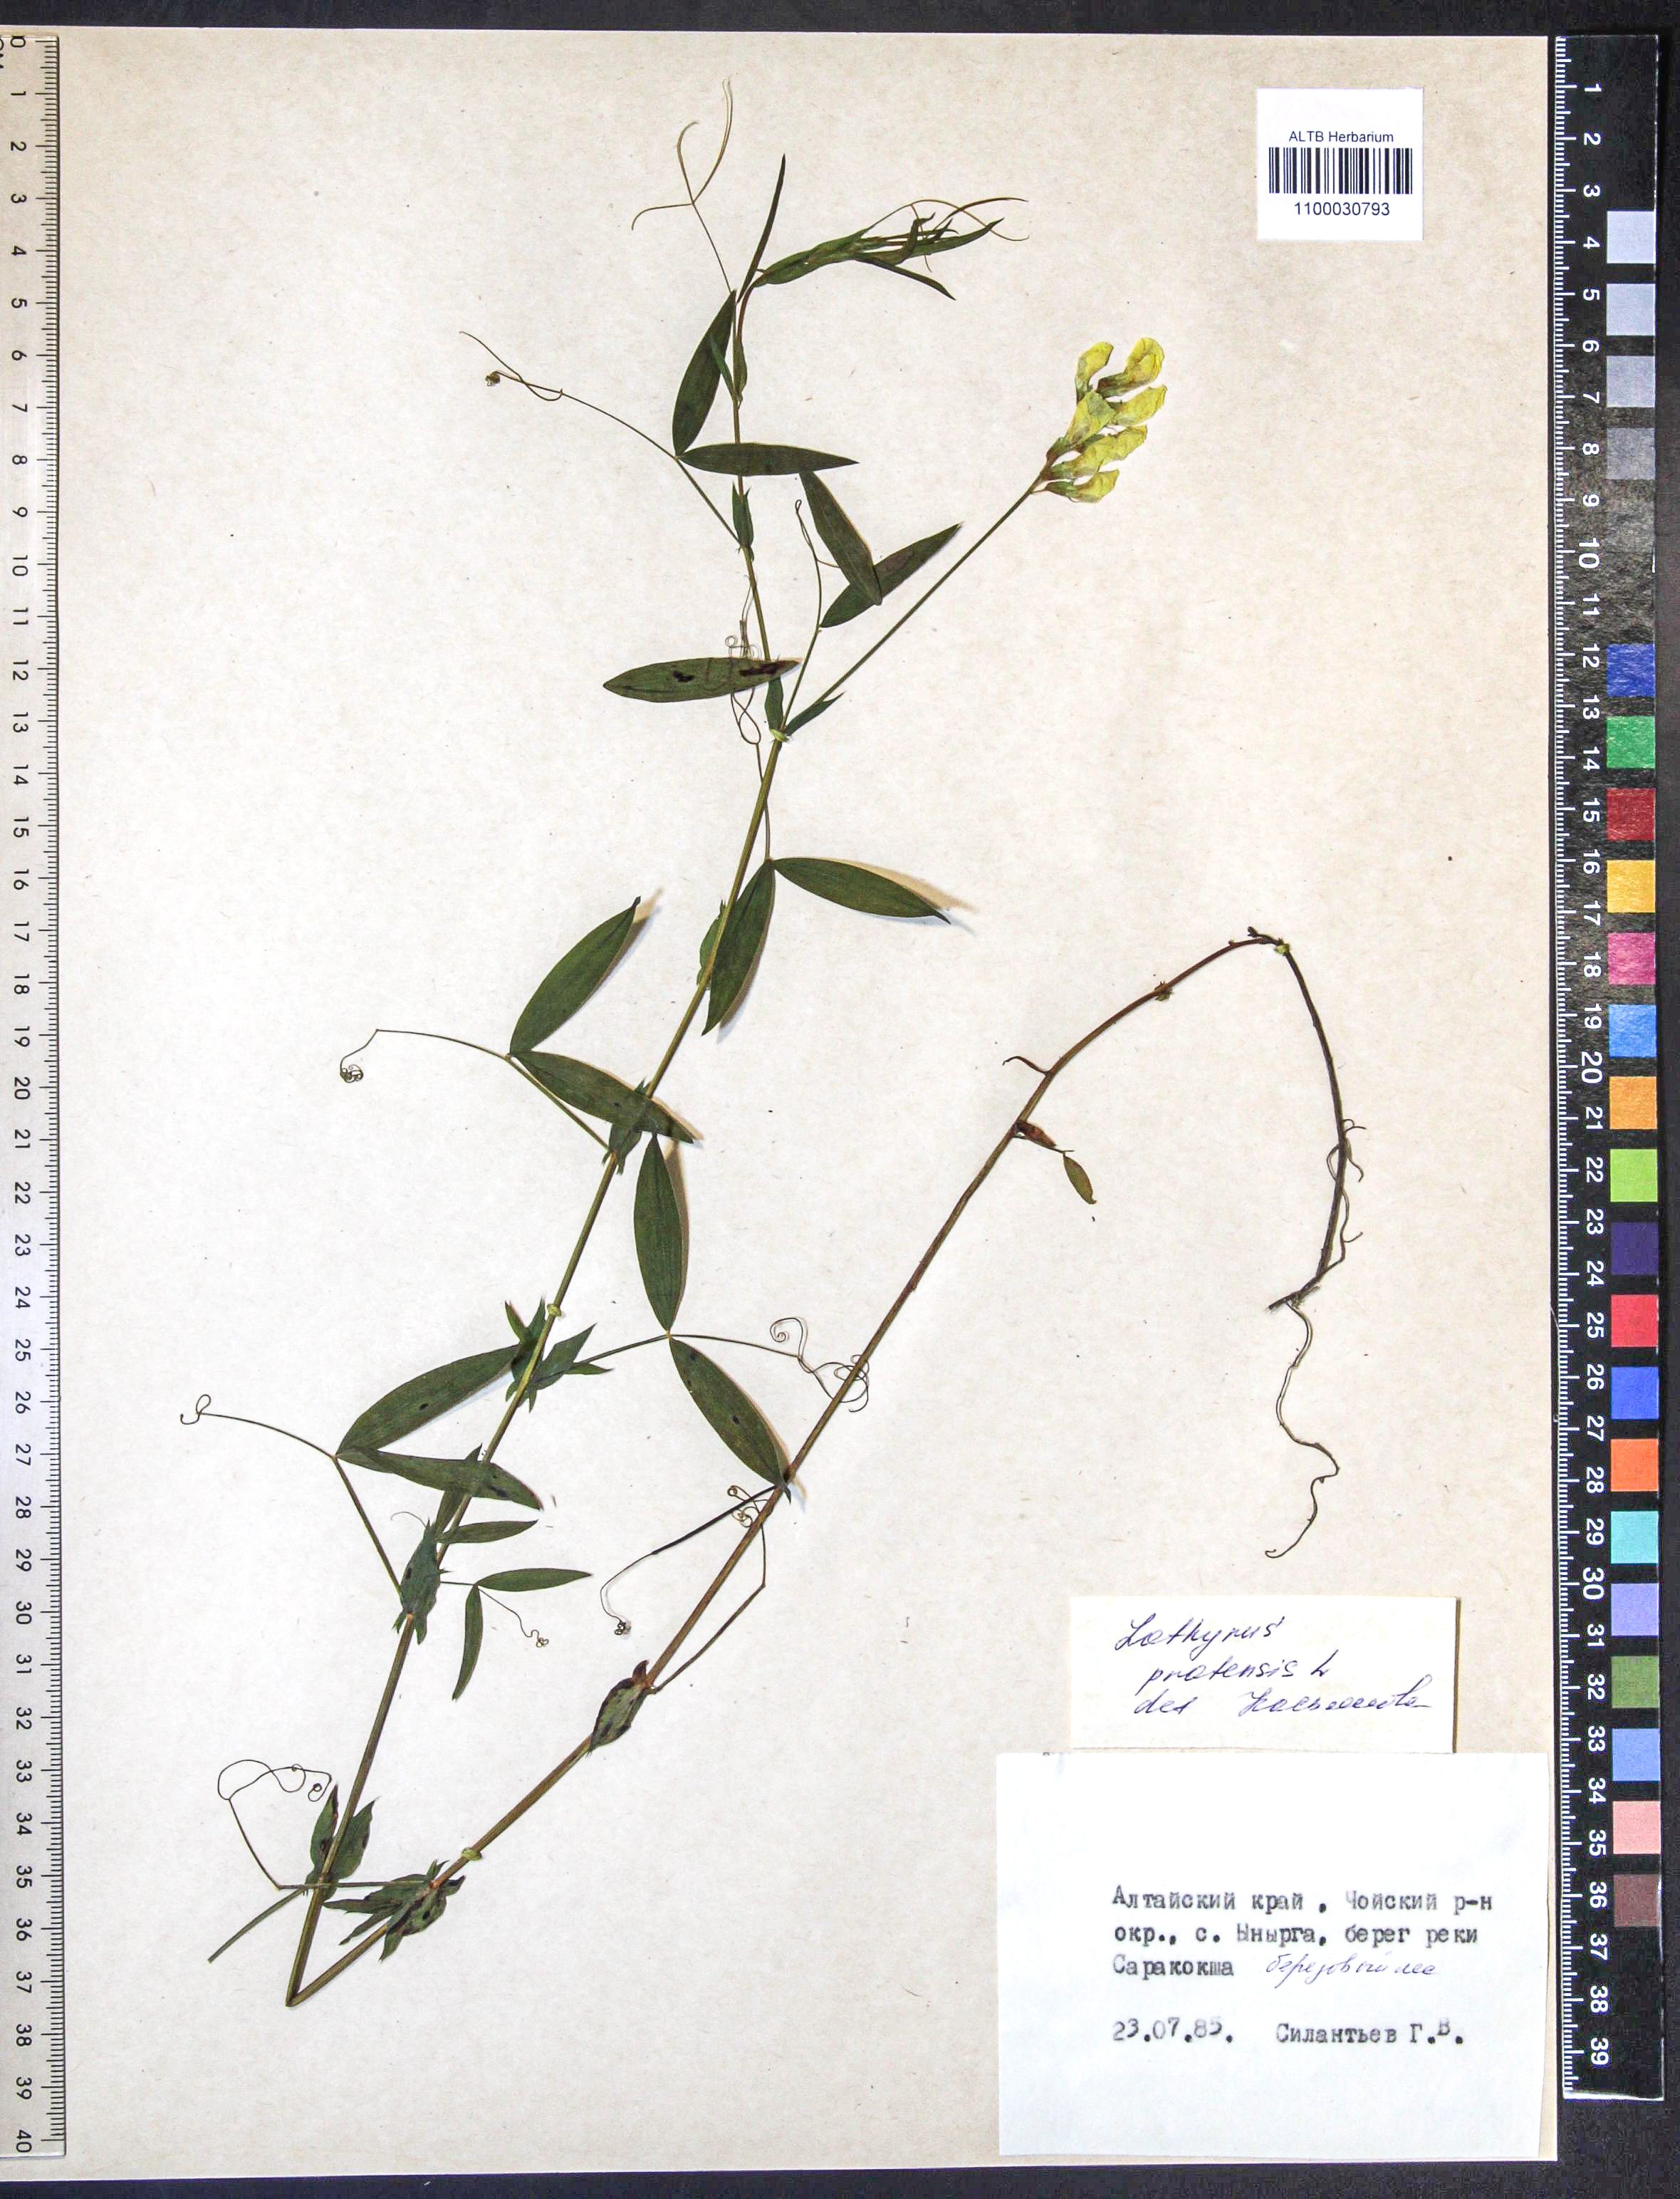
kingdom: Plantae
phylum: Tracheophyta
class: Magnoliopsida
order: Fabales
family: Fabaceae
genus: Lathyrus
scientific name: Lathyrus pratensis
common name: Meadow vetchling
